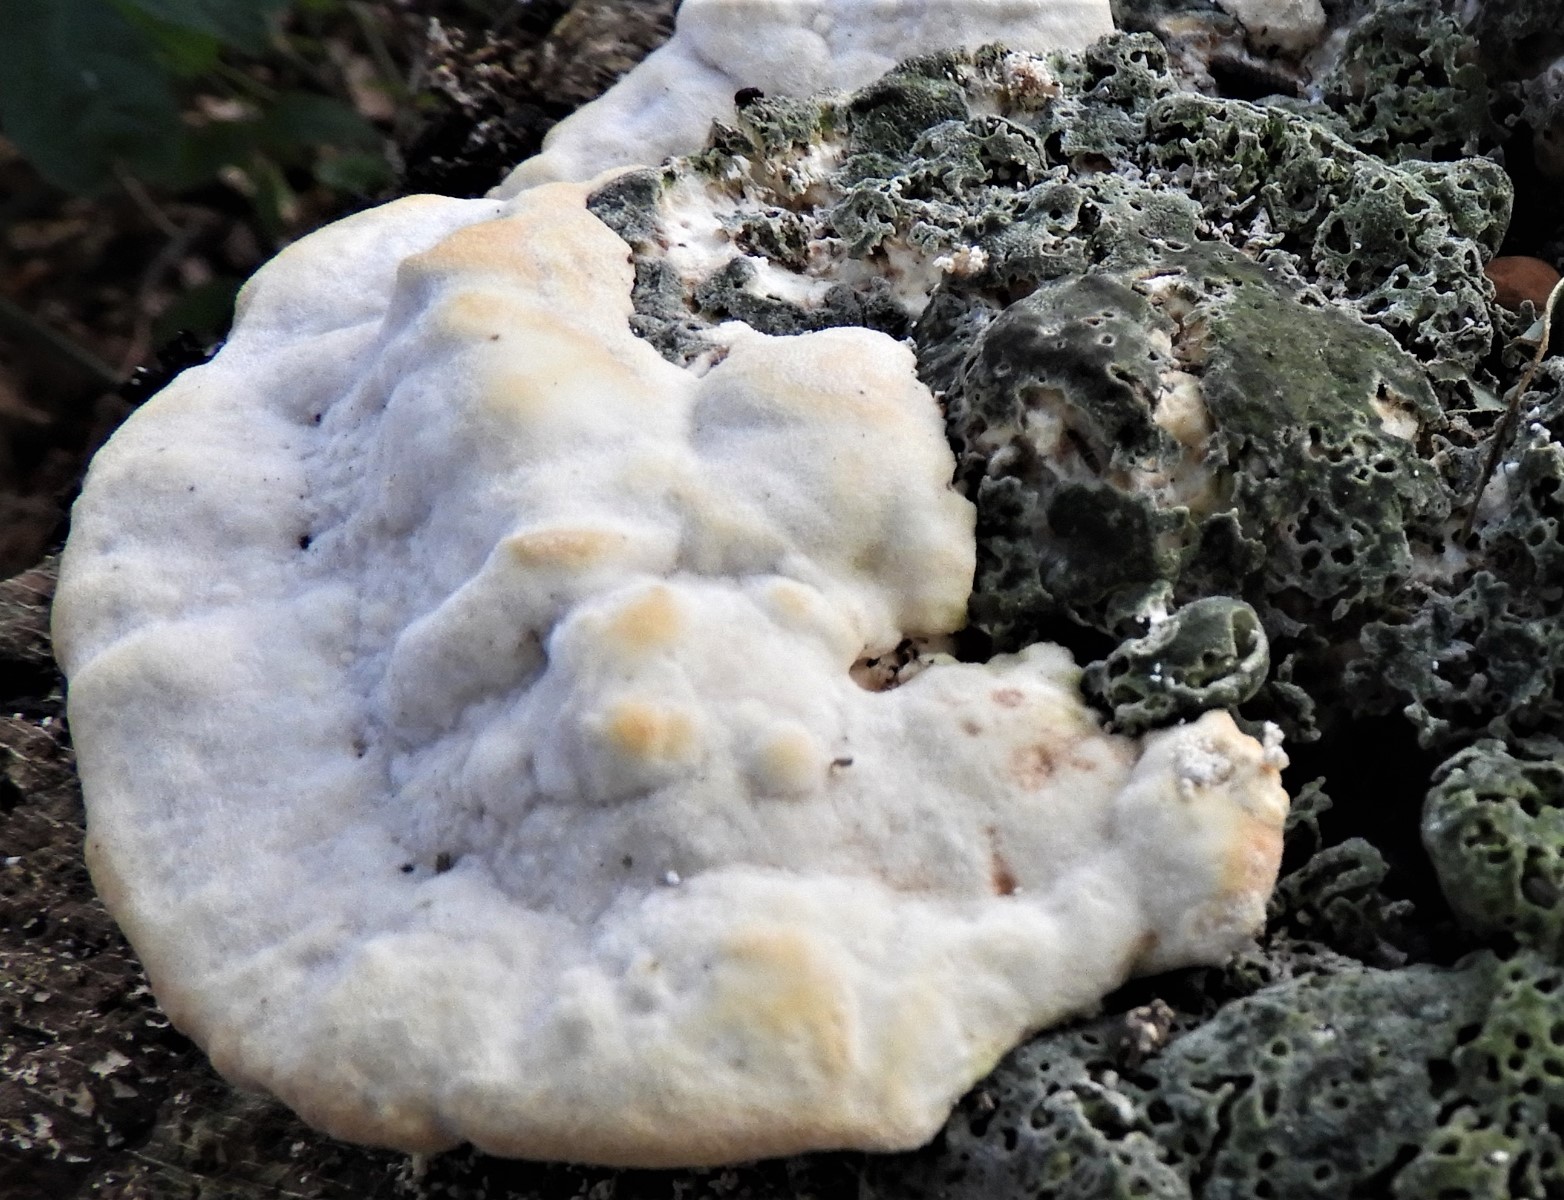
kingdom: Fungi
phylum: Basidiomycota
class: Agaricomycetes
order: Polyporales
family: Polyporaceae
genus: Trametes
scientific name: Trametes gibbosa
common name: puklet læderporesvamp
